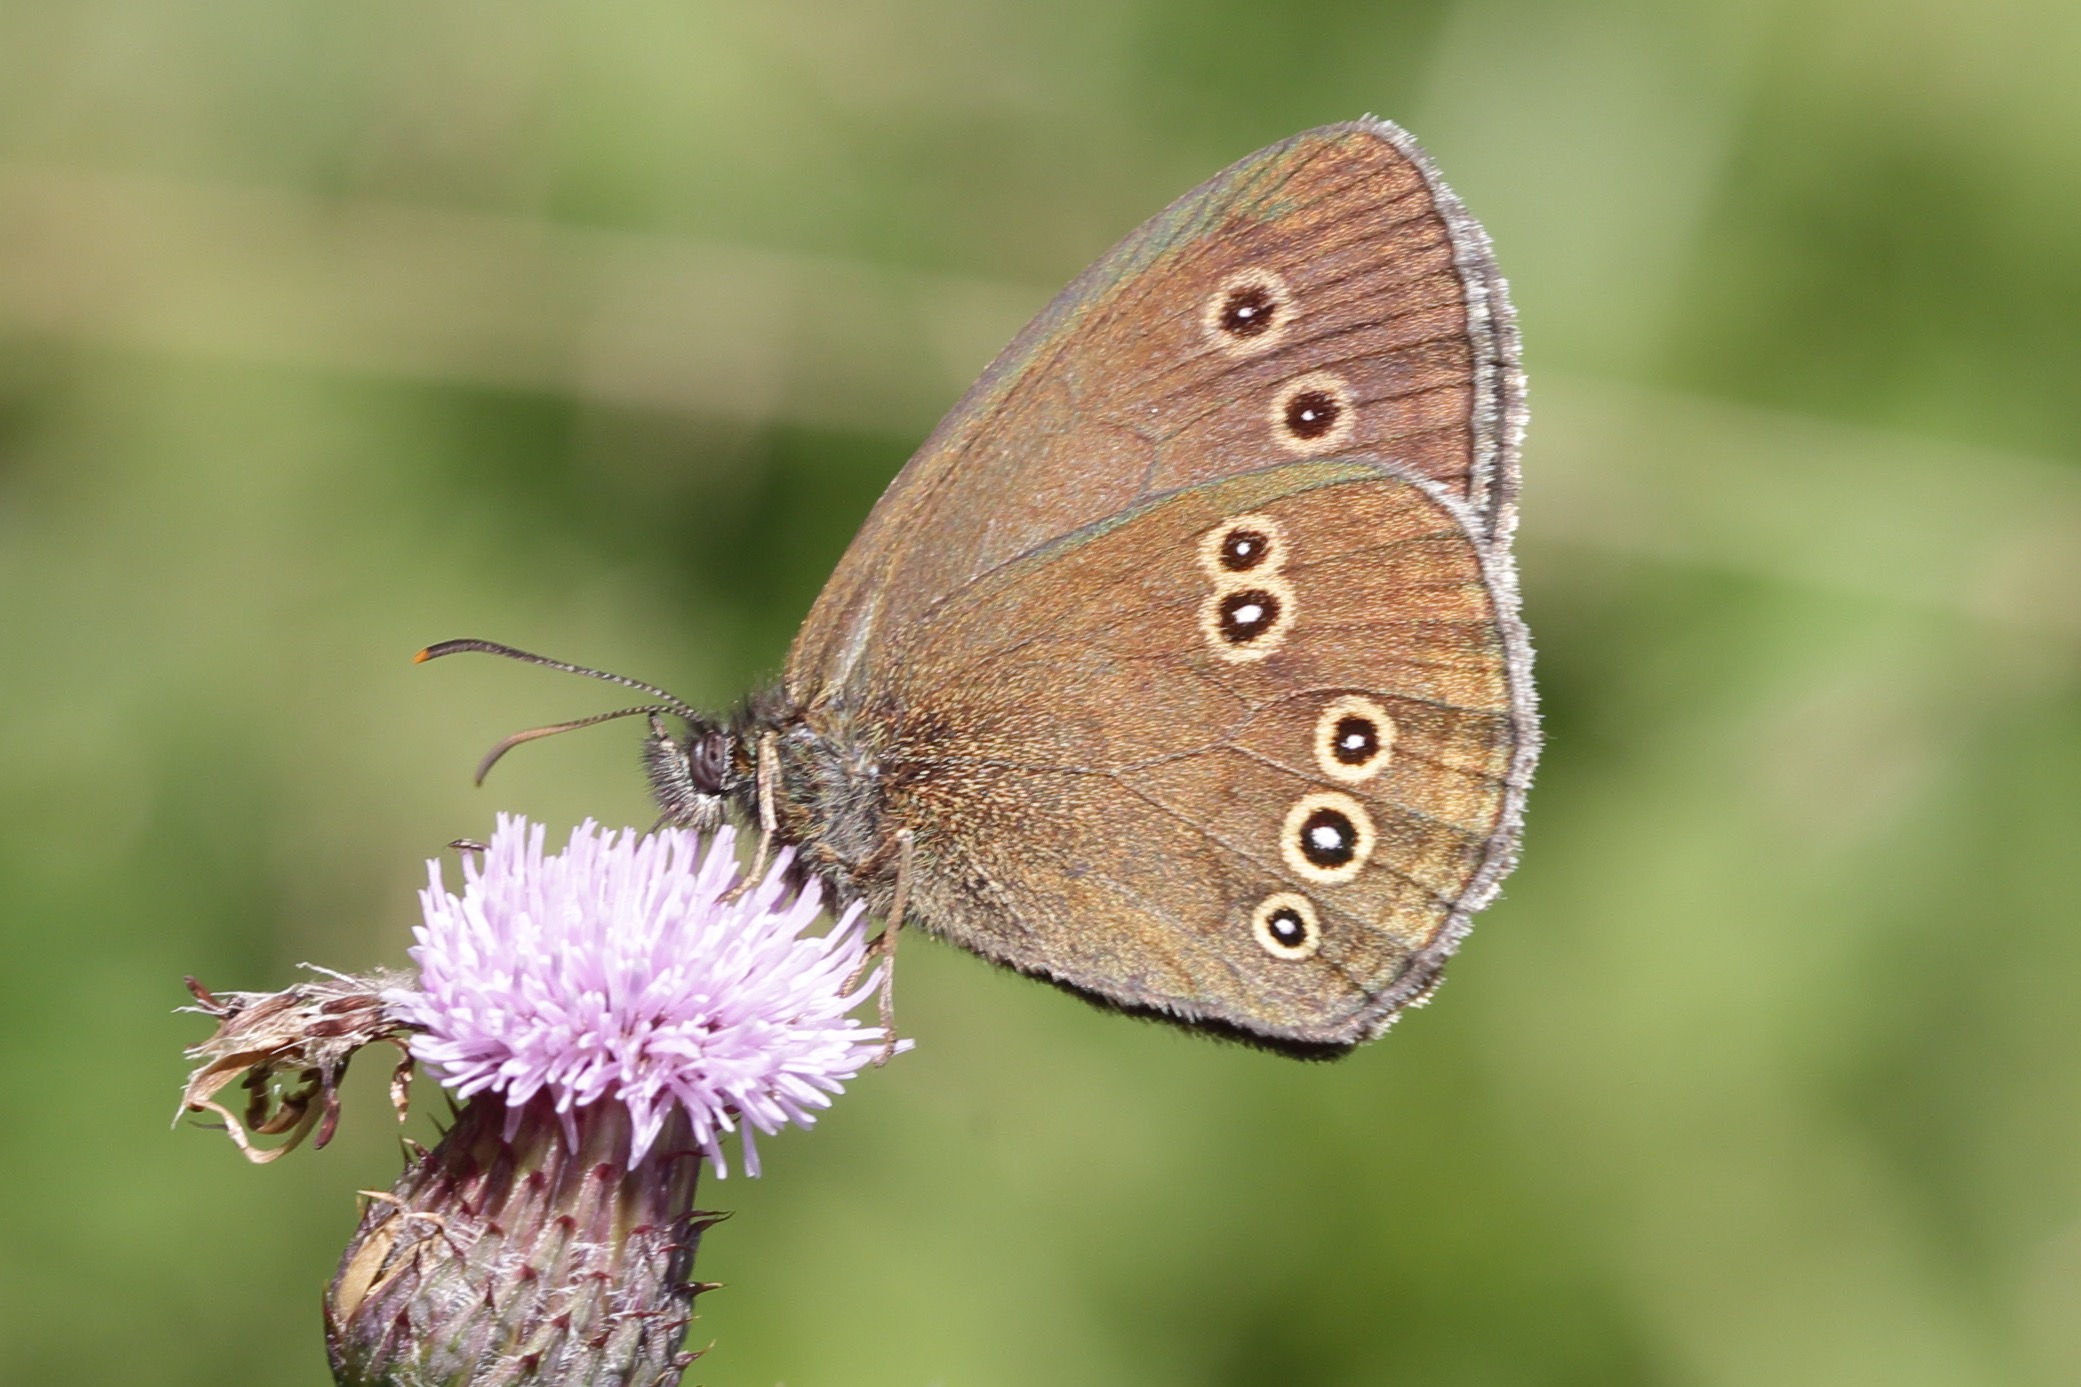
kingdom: Animalia
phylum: Arthropoda
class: Insecta
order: Lepidoptera
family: Nymphalidae
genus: Aphantopus
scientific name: Aphantopus hyperantus
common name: Engrandøje
